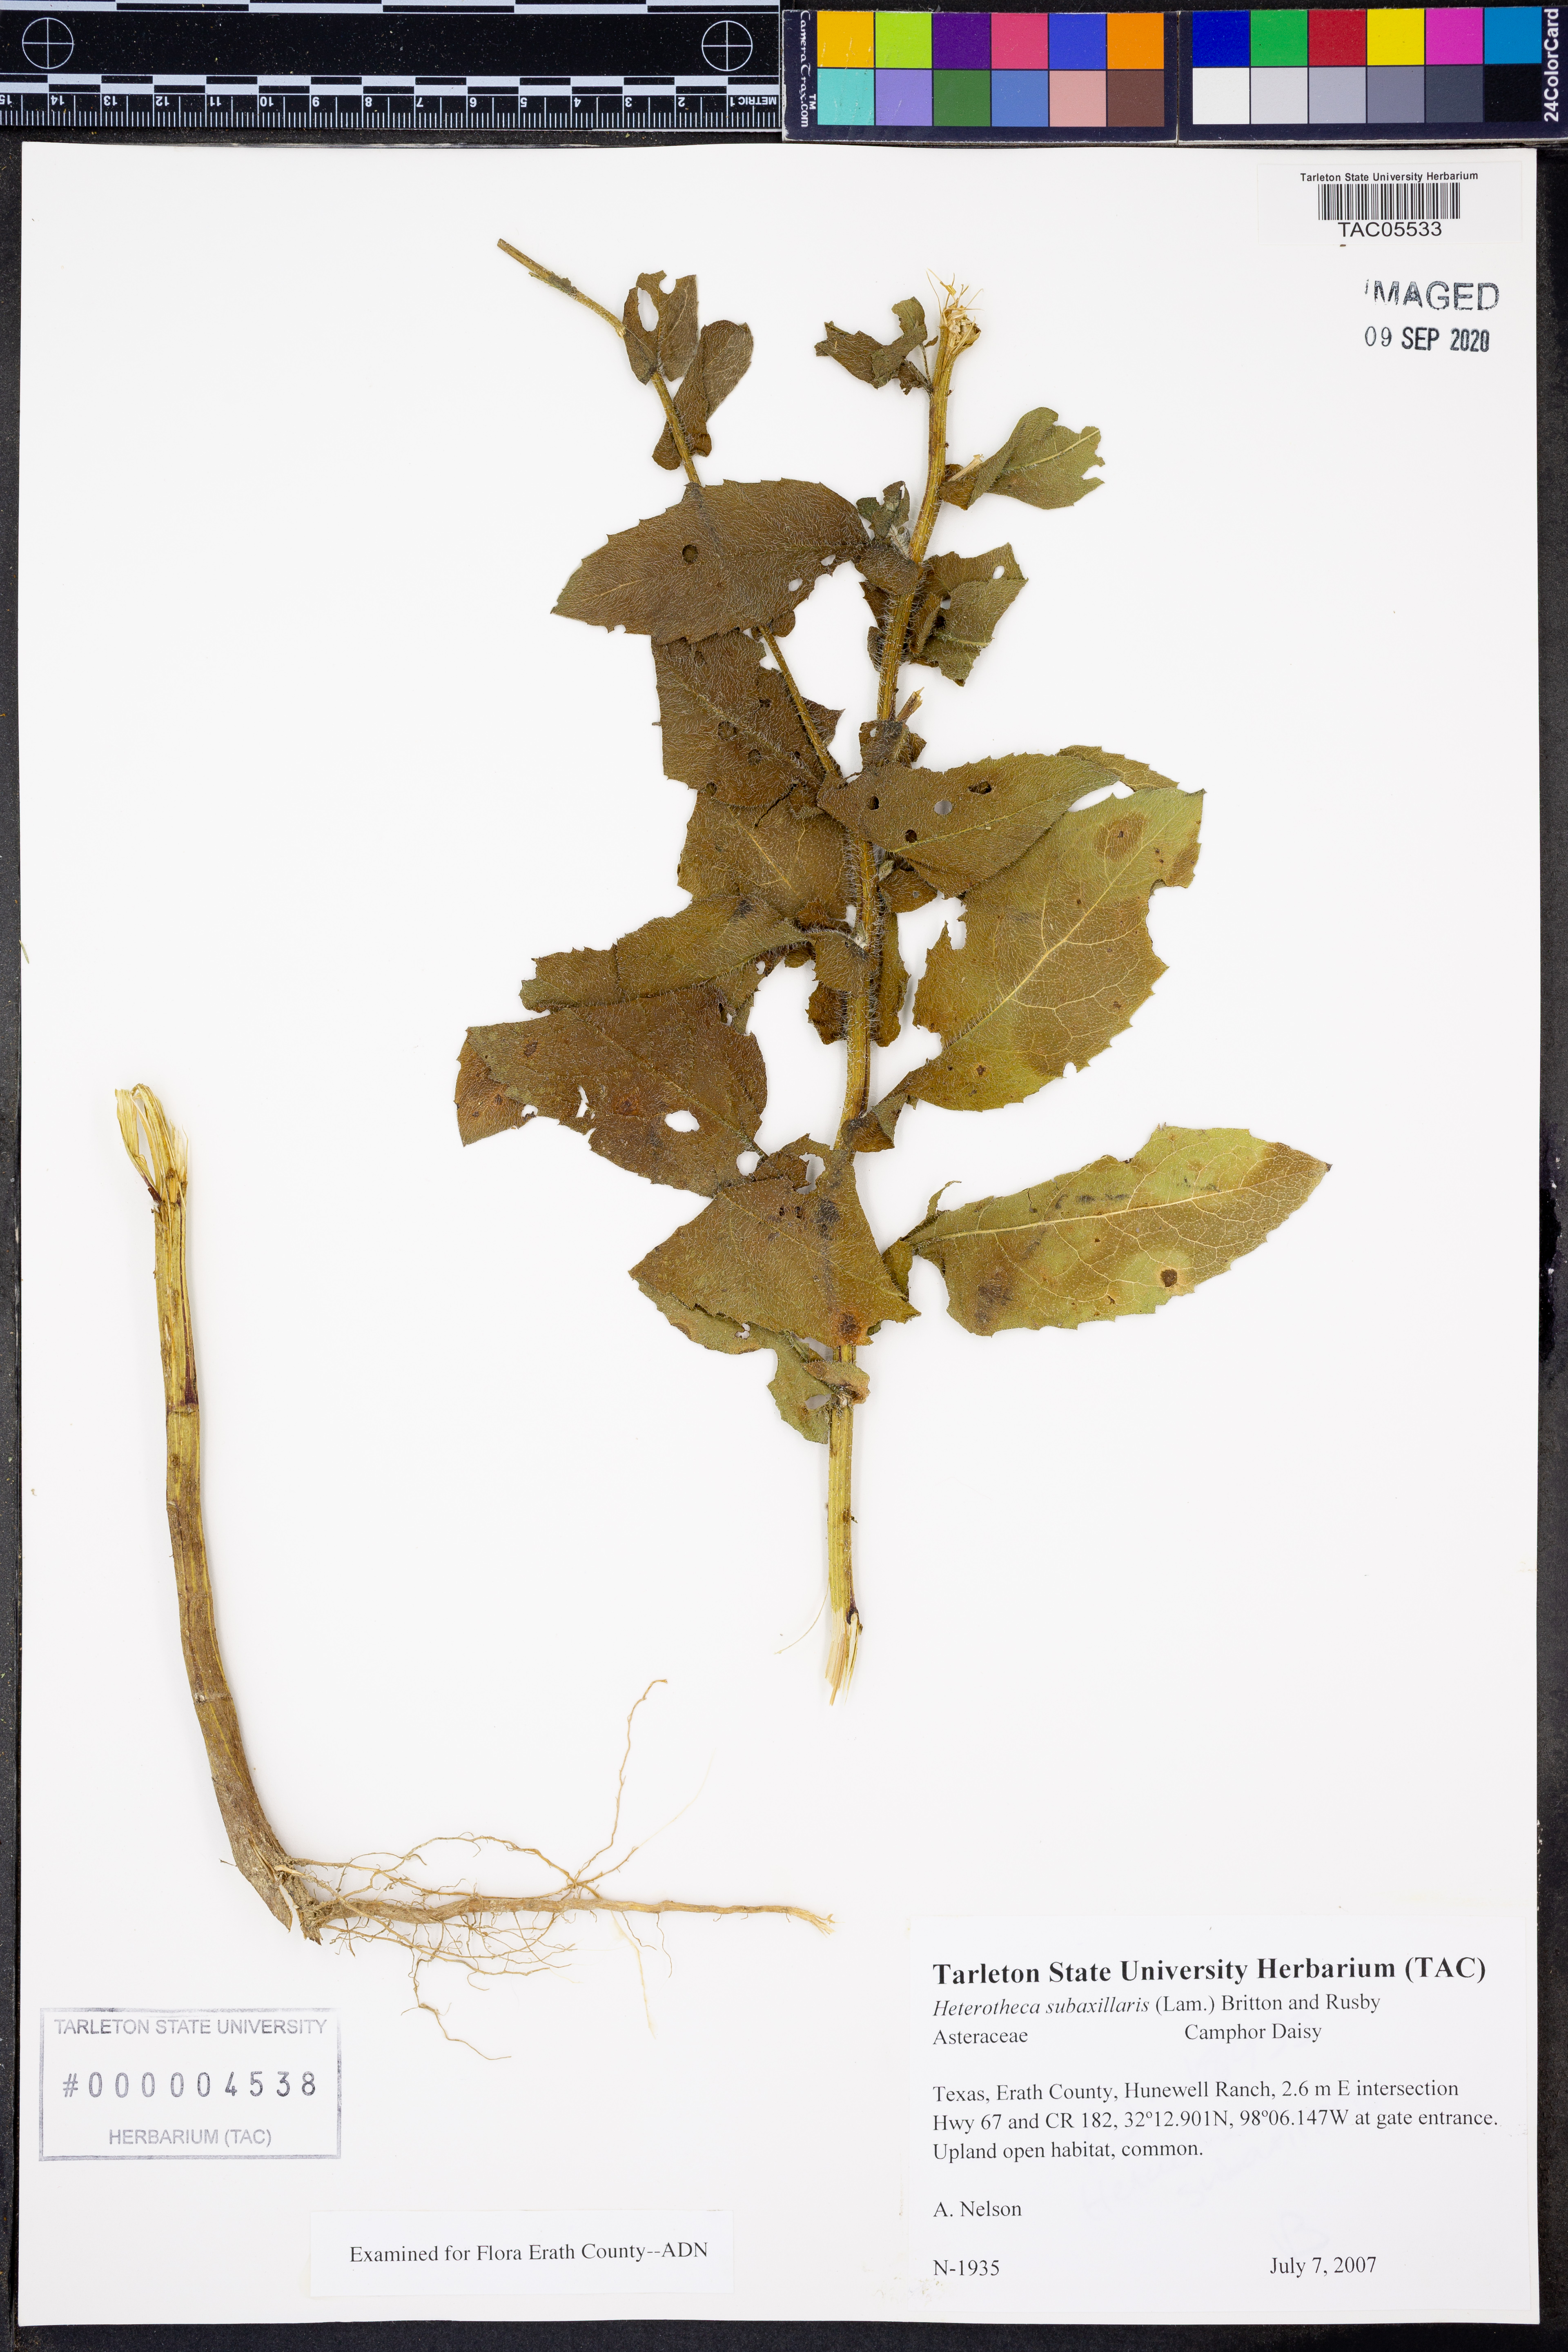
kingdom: Plantae
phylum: Tracheophyta
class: Magnoliopsida
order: Asterales
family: Asteraceae
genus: Heterotheca
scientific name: Heterotheca subaxillaris
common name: Camphorweed
